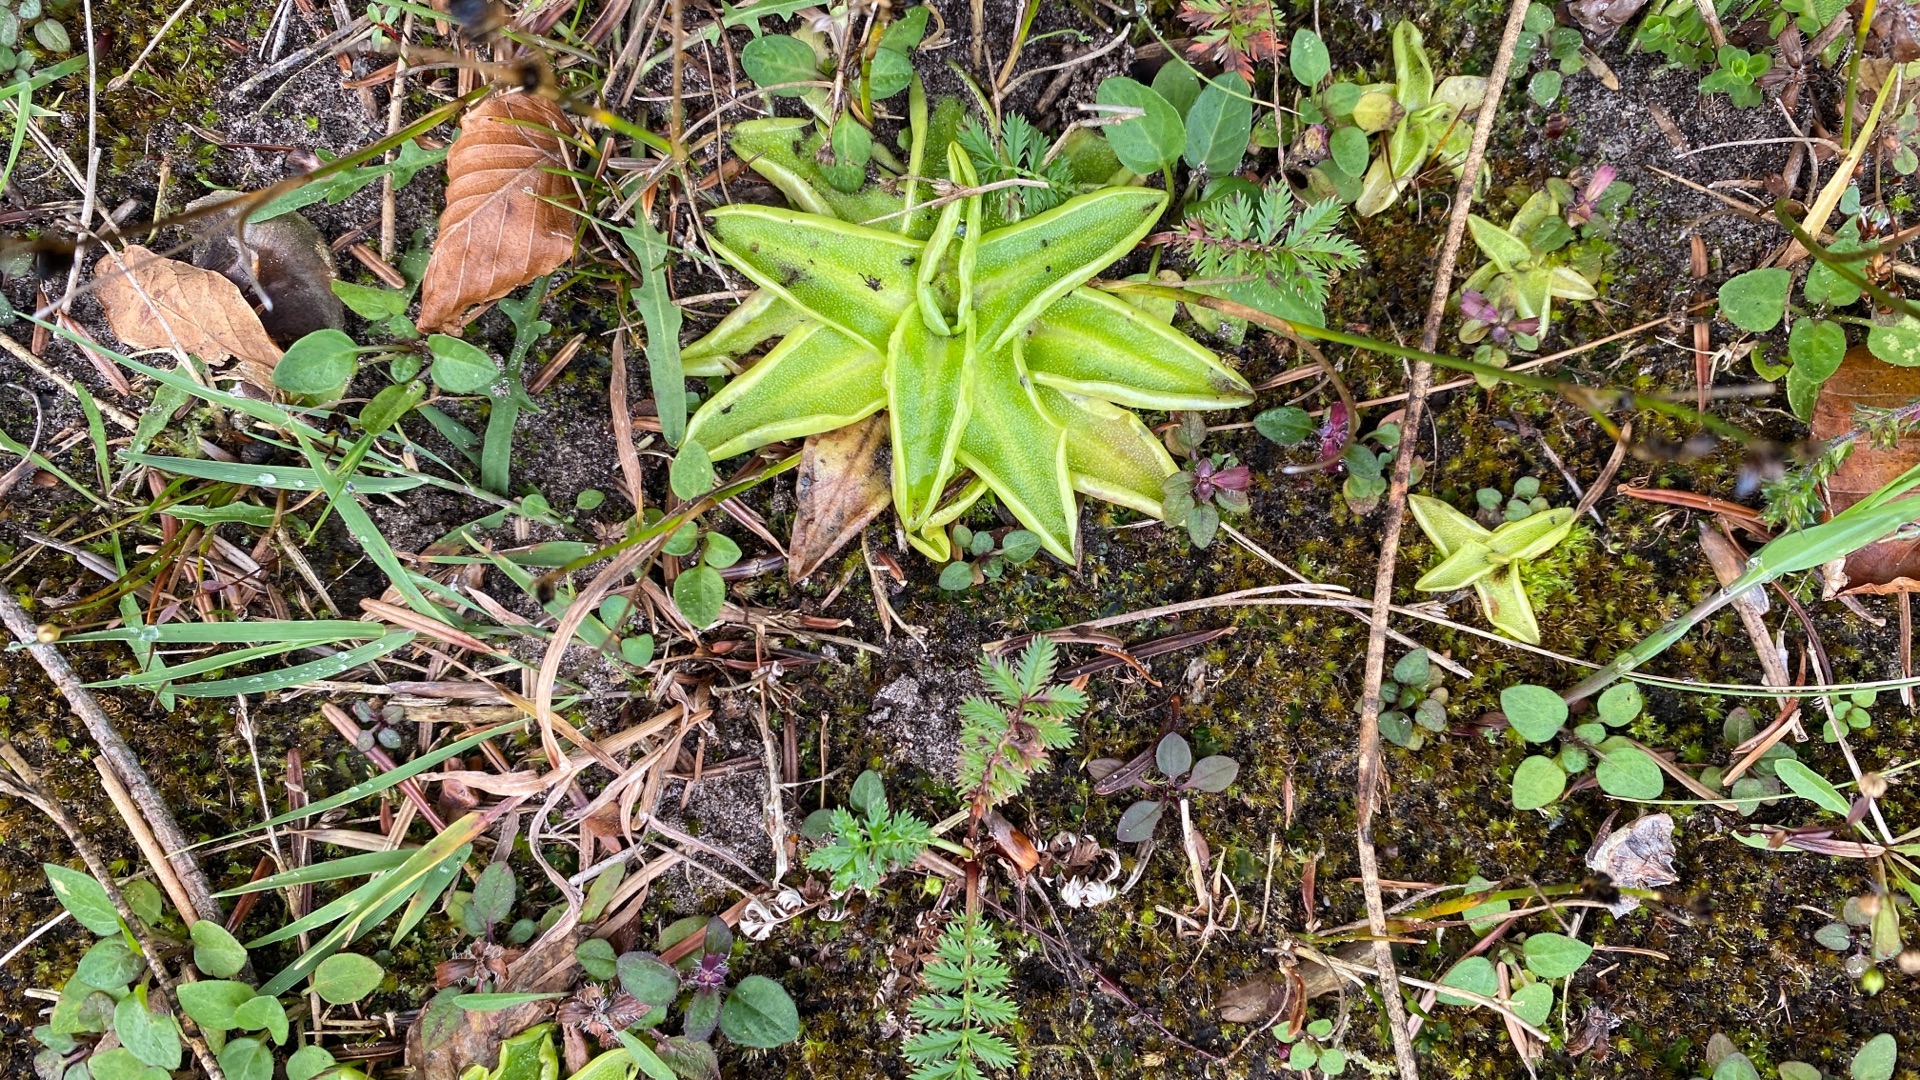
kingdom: Plantae
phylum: Tracheophyta
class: Magnoliopsida
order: Lamiales
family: Lentibulariaceae
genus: Pinguicula
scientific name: Pinguicula vulgaris
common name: Vibefedt
